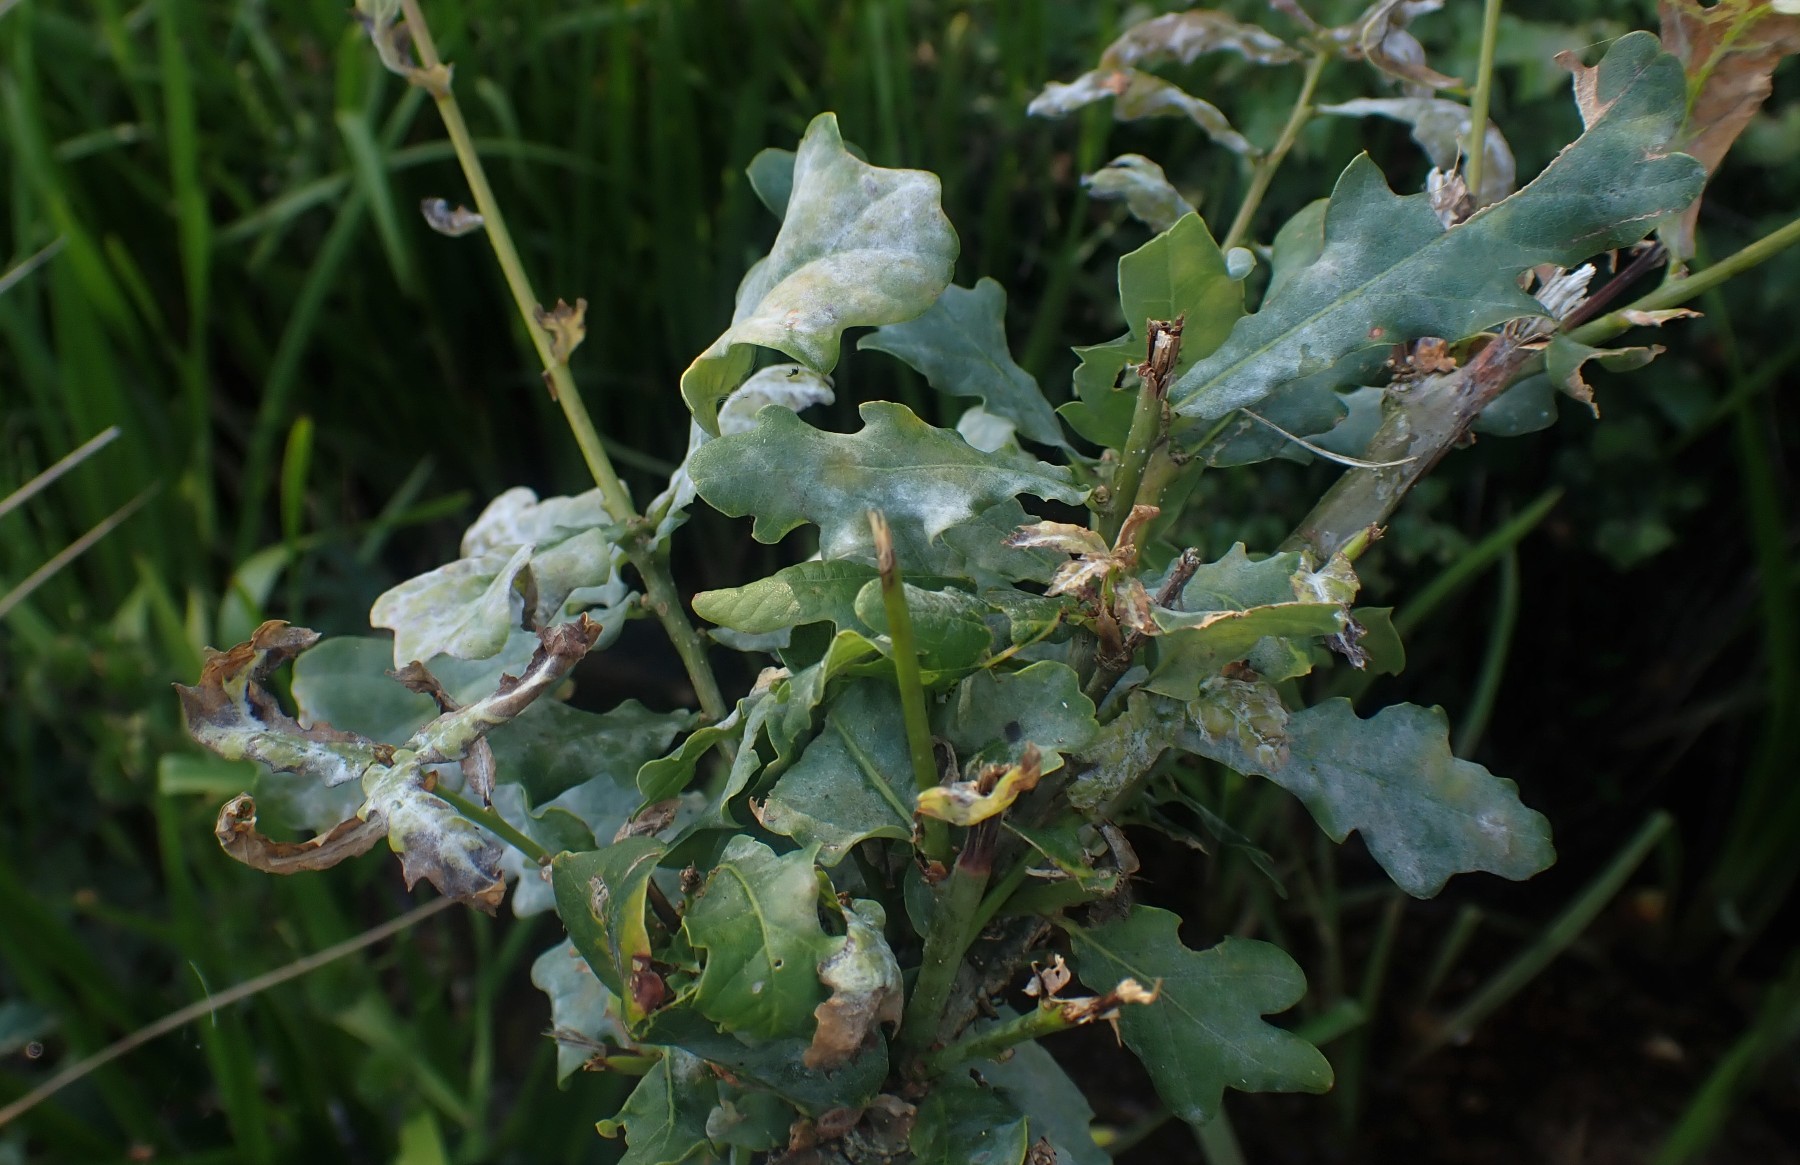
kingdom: Fungi
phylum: Ascomycota
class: Leotiomycetes
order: Helotiales
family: Erysiphaceae
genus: Erysiphe
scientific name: Erysiphe alphitoides
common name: ege-meldug
